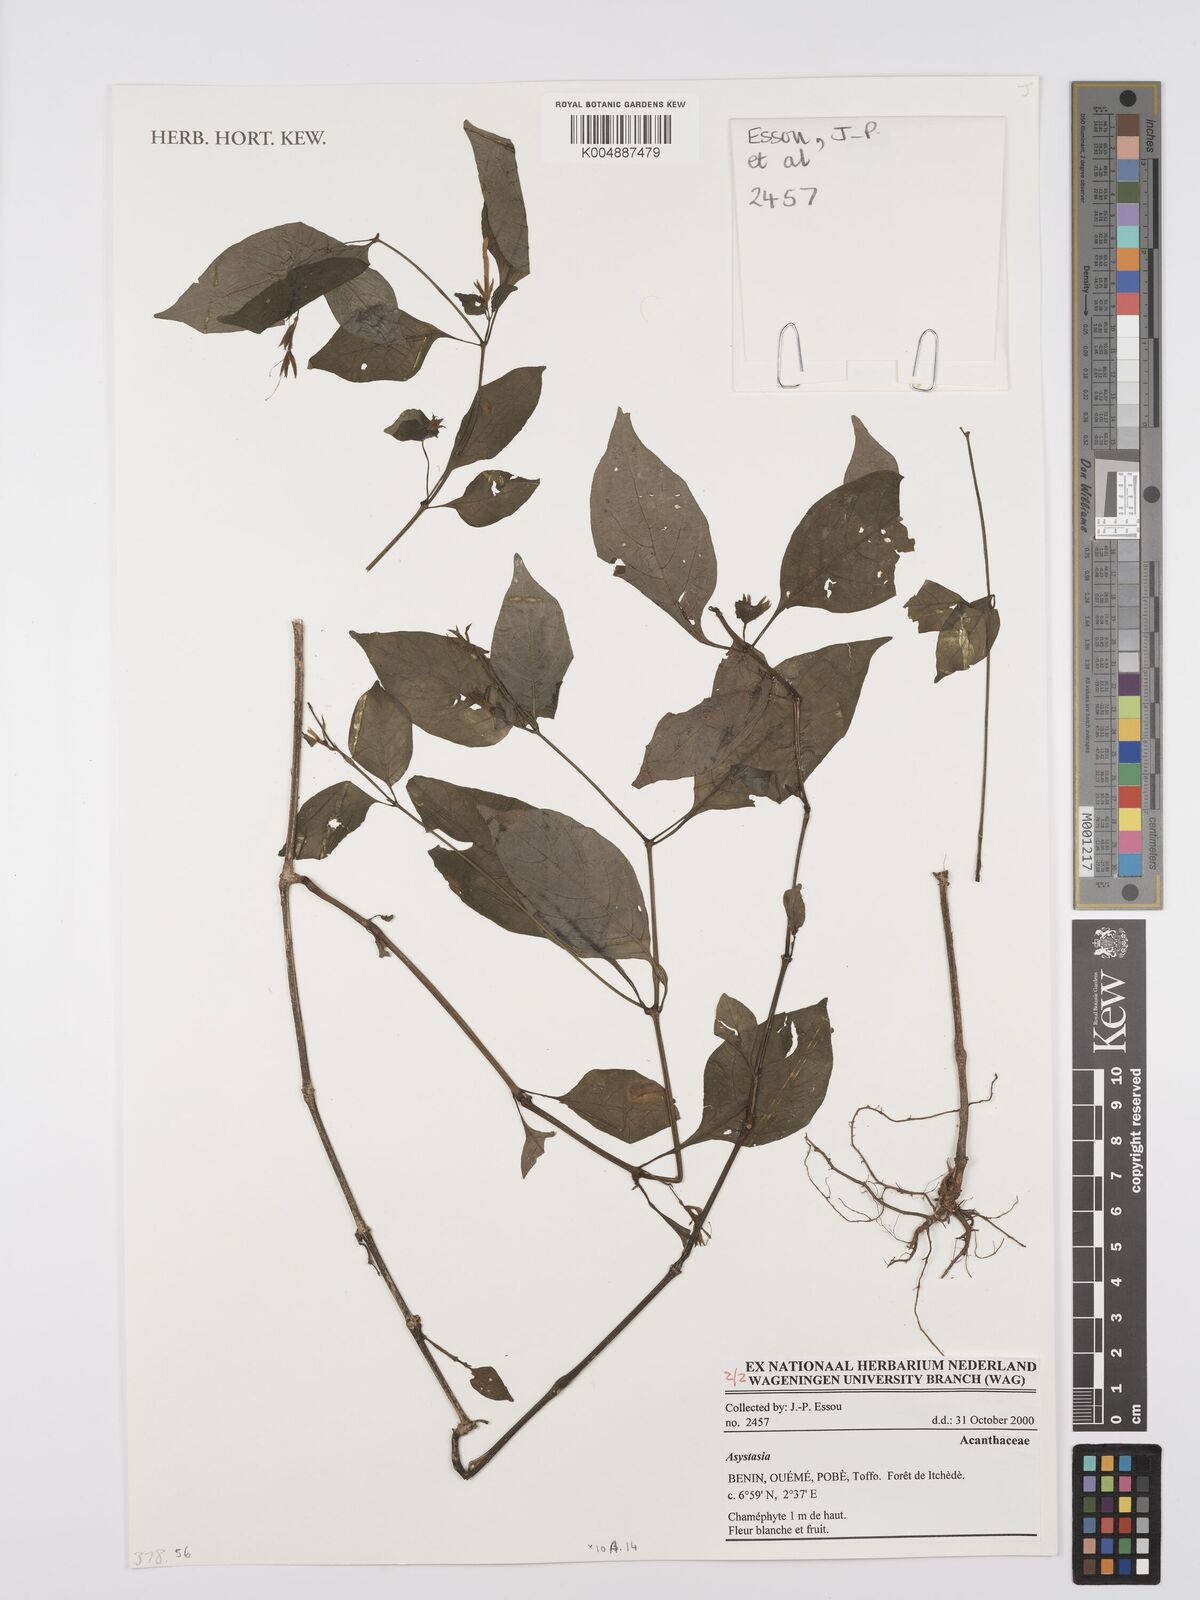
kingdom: Plantae
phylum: Tracheophyta
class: Magnoliopsida
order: Lamiales
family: Acanthaceae
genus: Asystasia
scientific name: Asystasia
